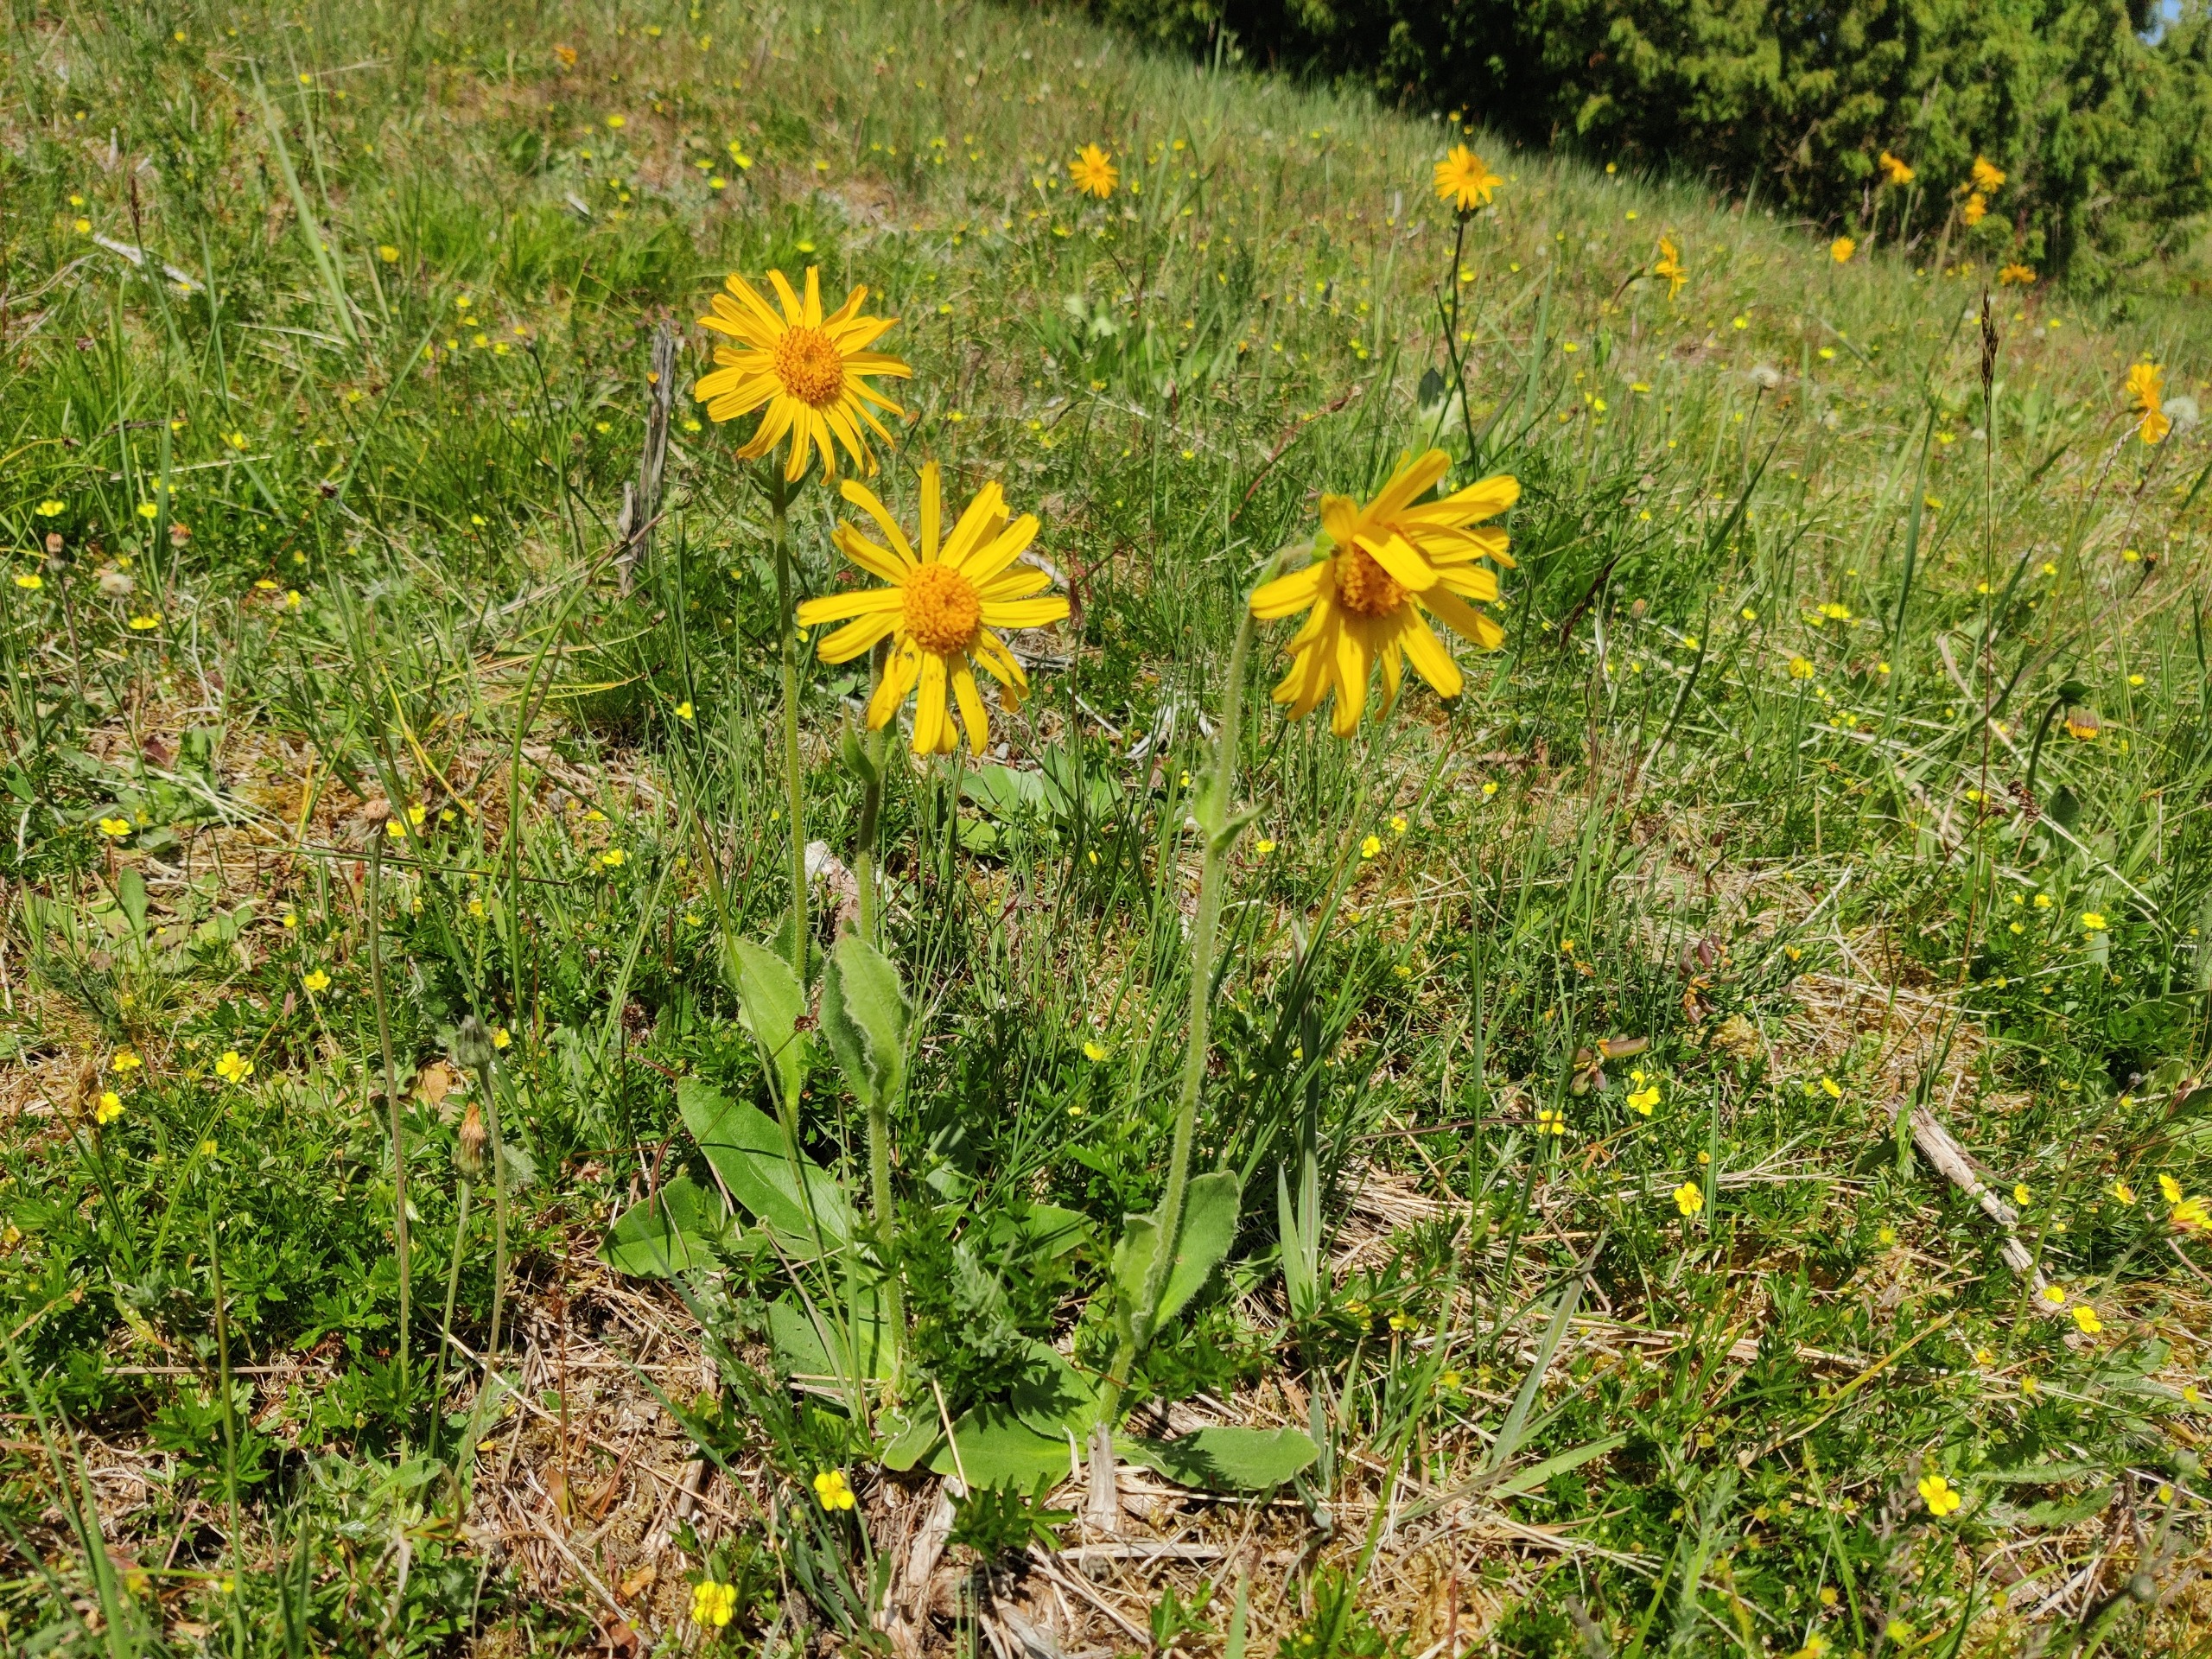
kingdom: Plantae
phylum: Tracheophyta
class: Magnoliopsida
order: Asterales
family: Asteraceae
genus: Arnica
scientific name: Arnica montana
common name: Guldblomme
